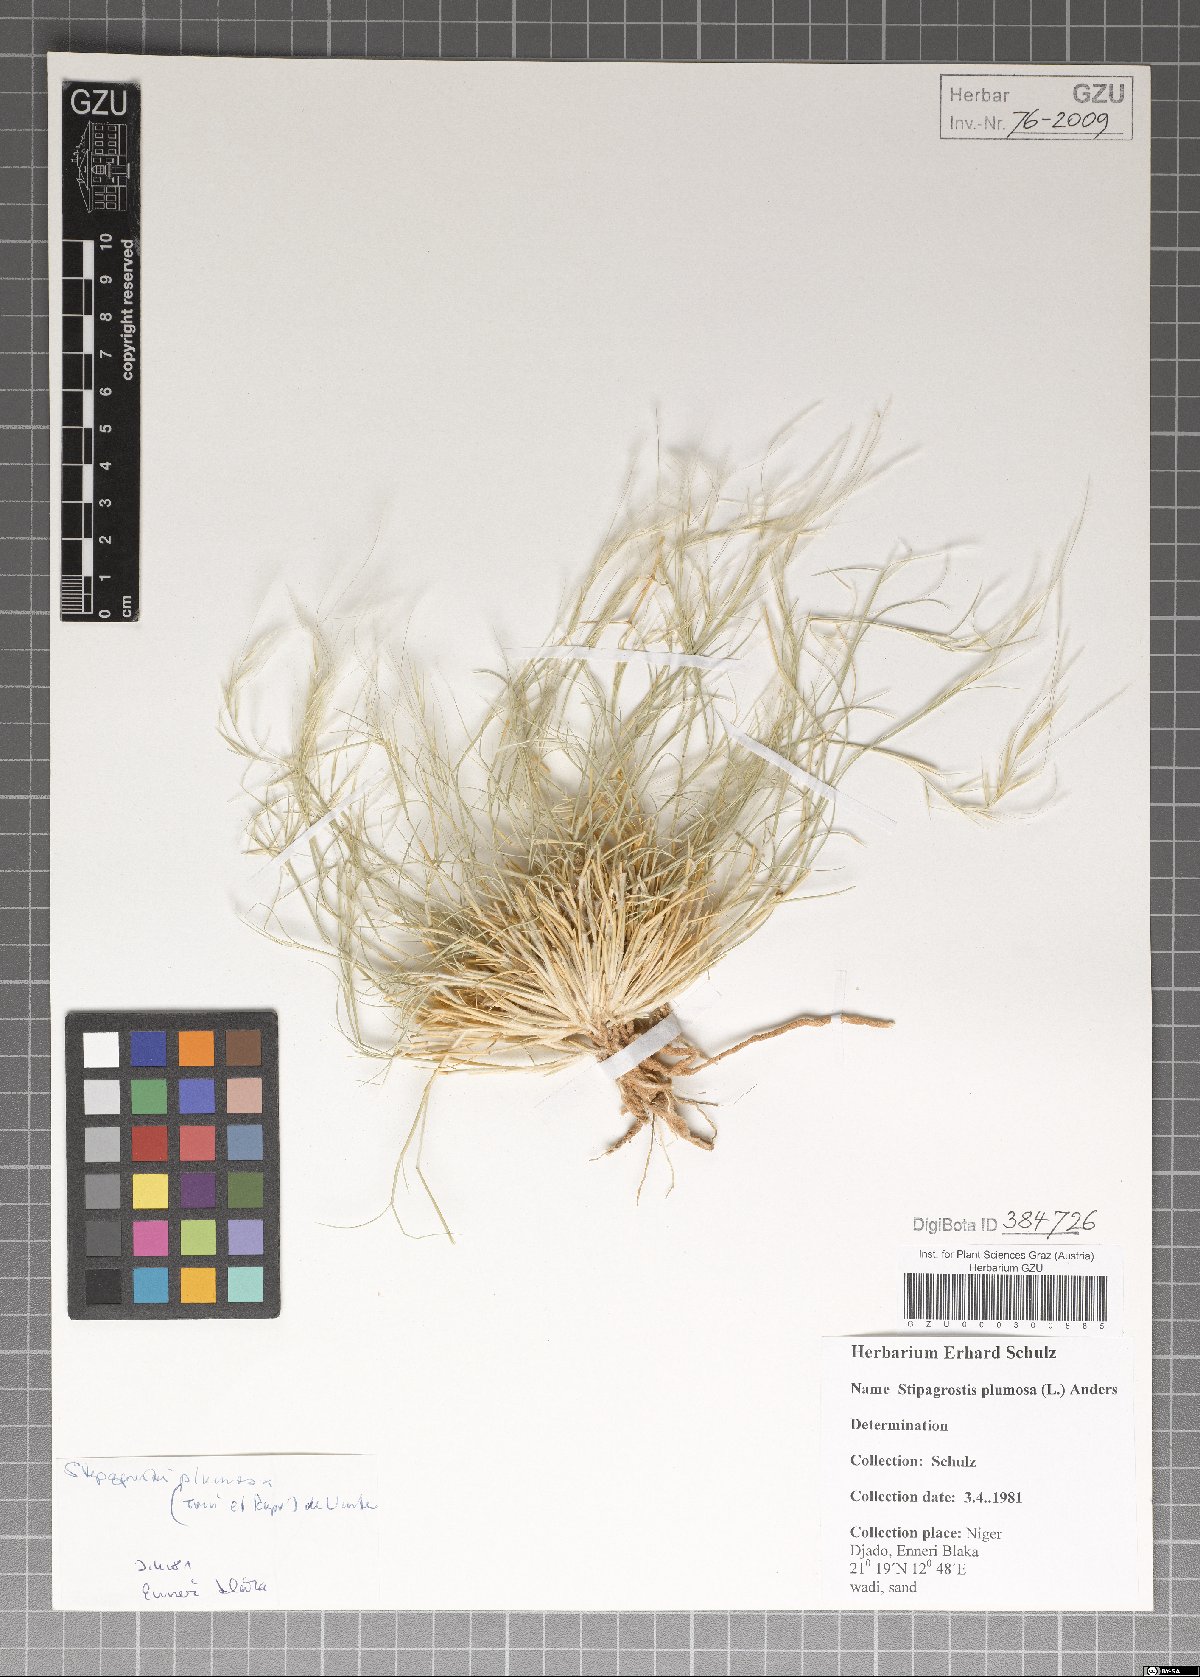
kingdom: Plantae
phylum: Tracheophyta
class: Liliopsida
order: Poales
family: Poaceae
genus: Stipagrostis
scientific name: Stipagrostis plumosa
